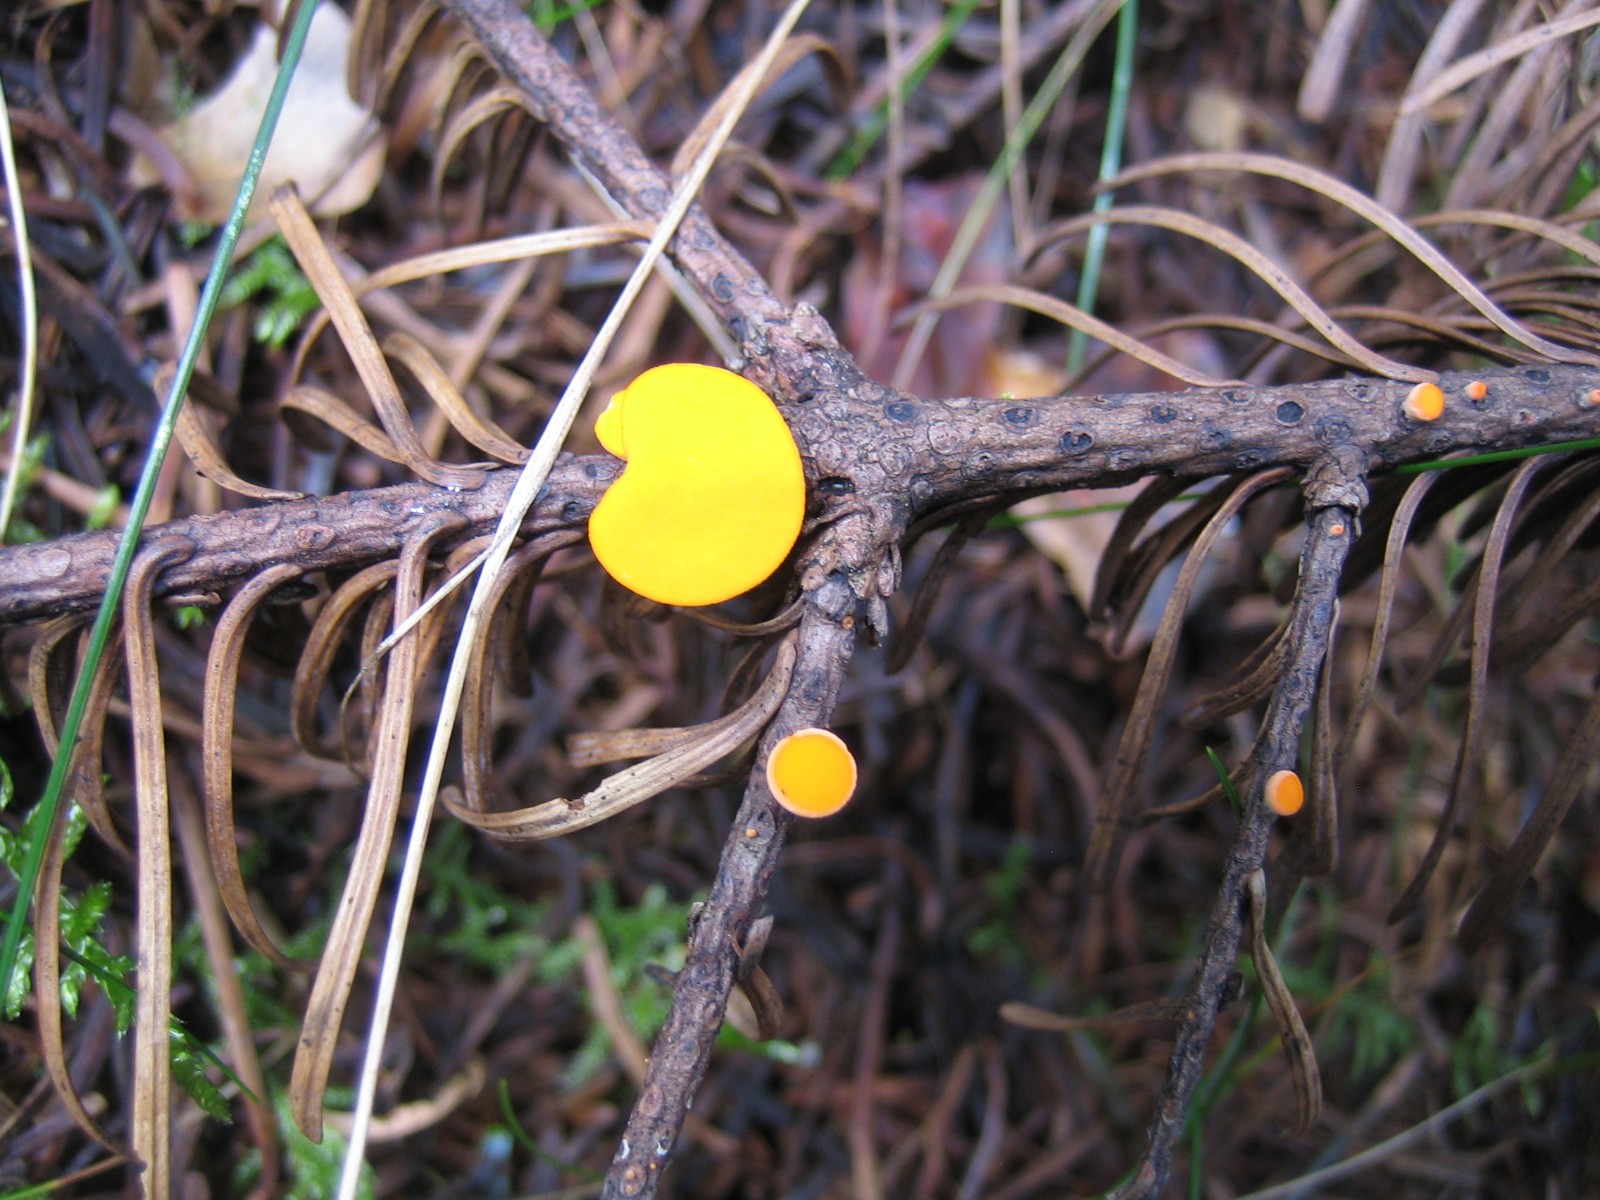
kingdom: Fungi
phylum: Ascomycota
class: Pezizomycetes
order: Pezizales
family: Sarcoscyphaceae
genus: Pithya
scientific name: Pithya vulgaris
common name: stor dukatbæger
